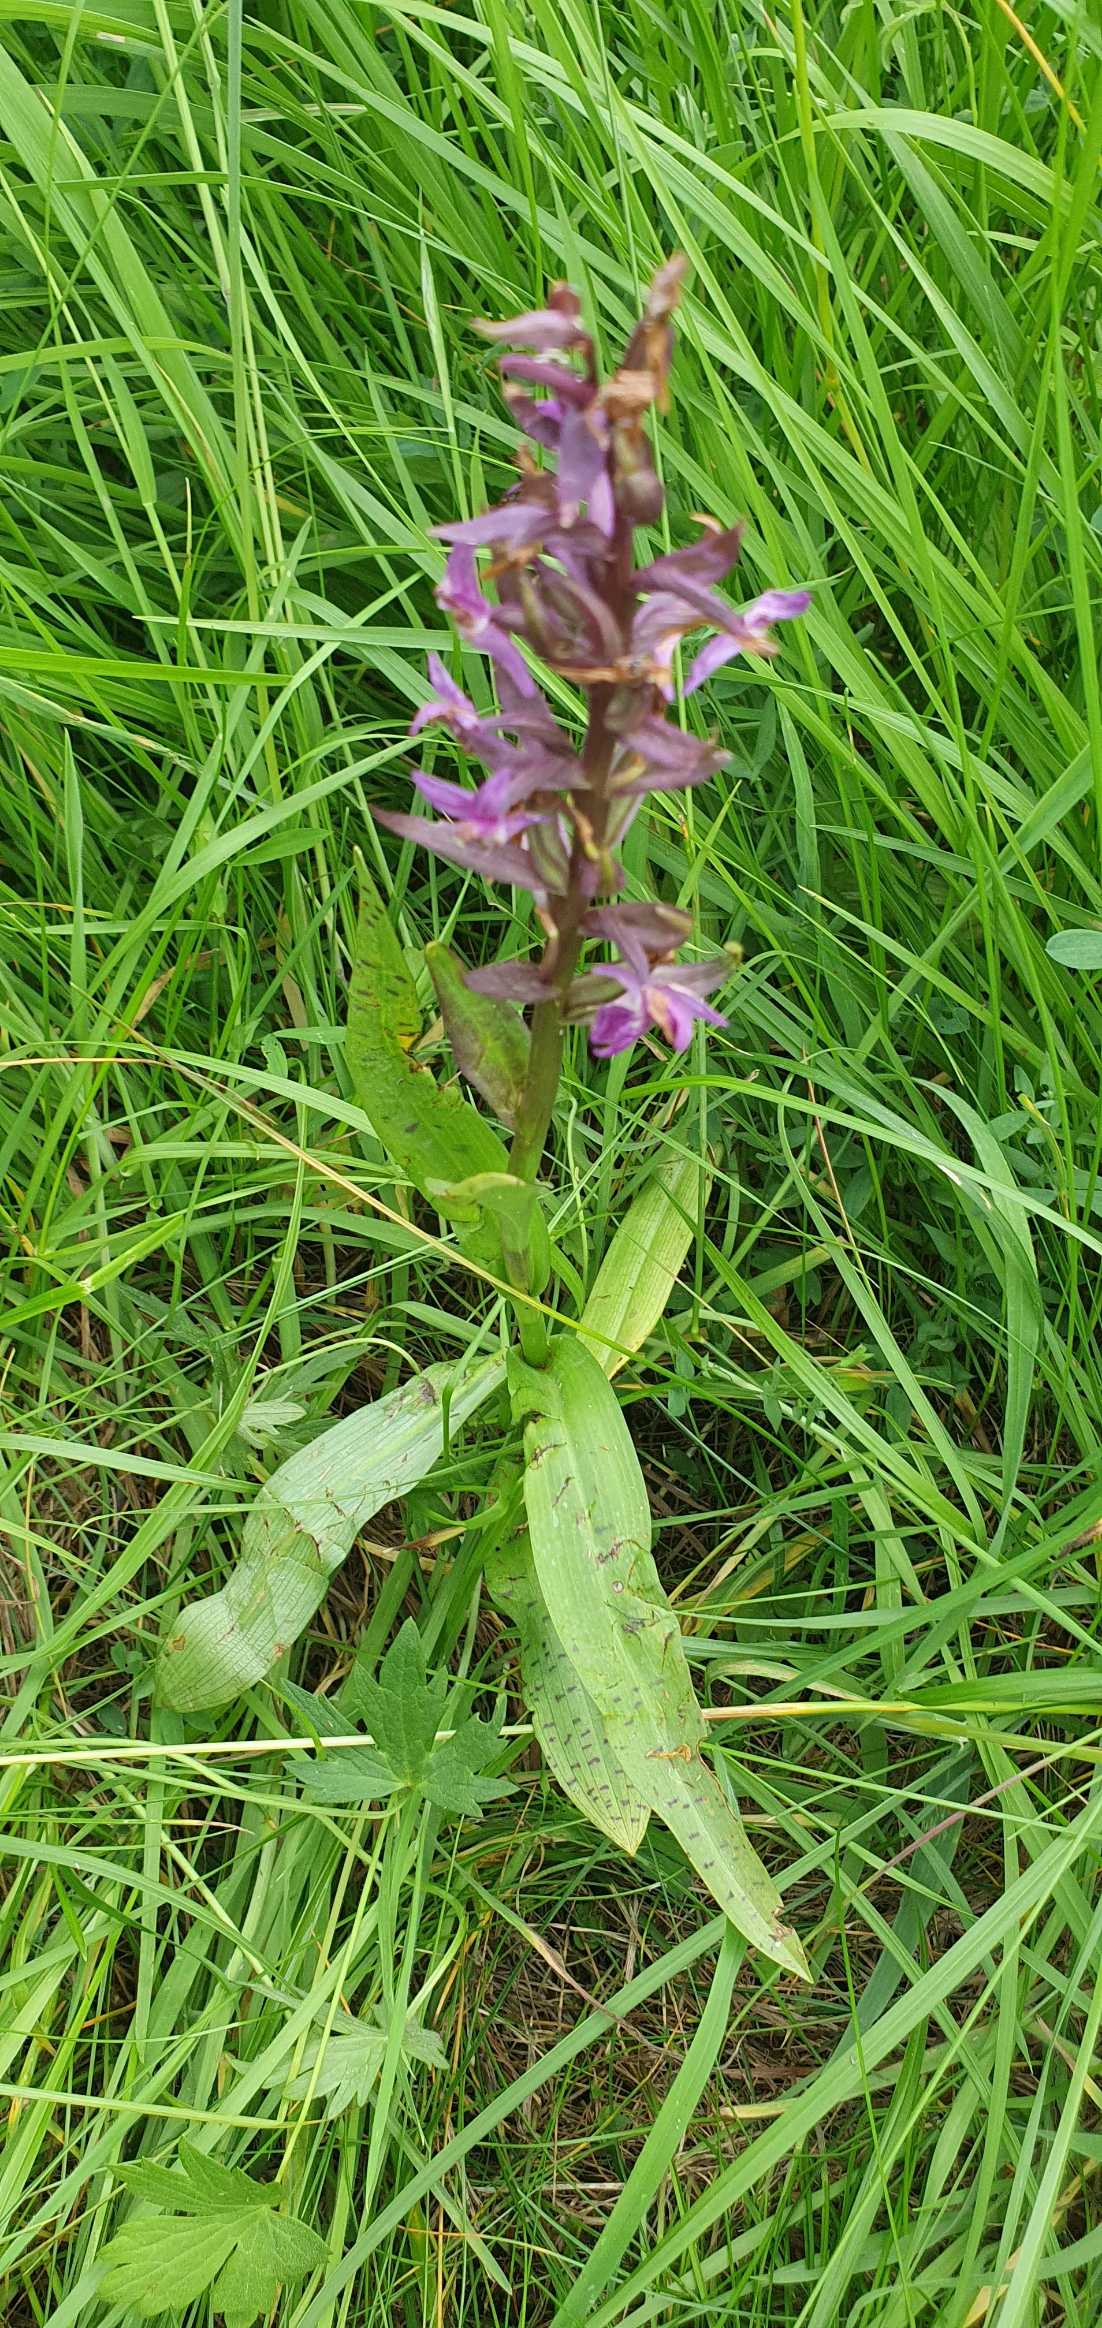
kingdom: Plantae
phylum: Tracheophyta
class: Liliopsida
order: Asparagales
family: Orchidaceae
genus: Dactylorhiza
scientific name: Dactylorhiza majalis
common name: Maj-gøgeurt
